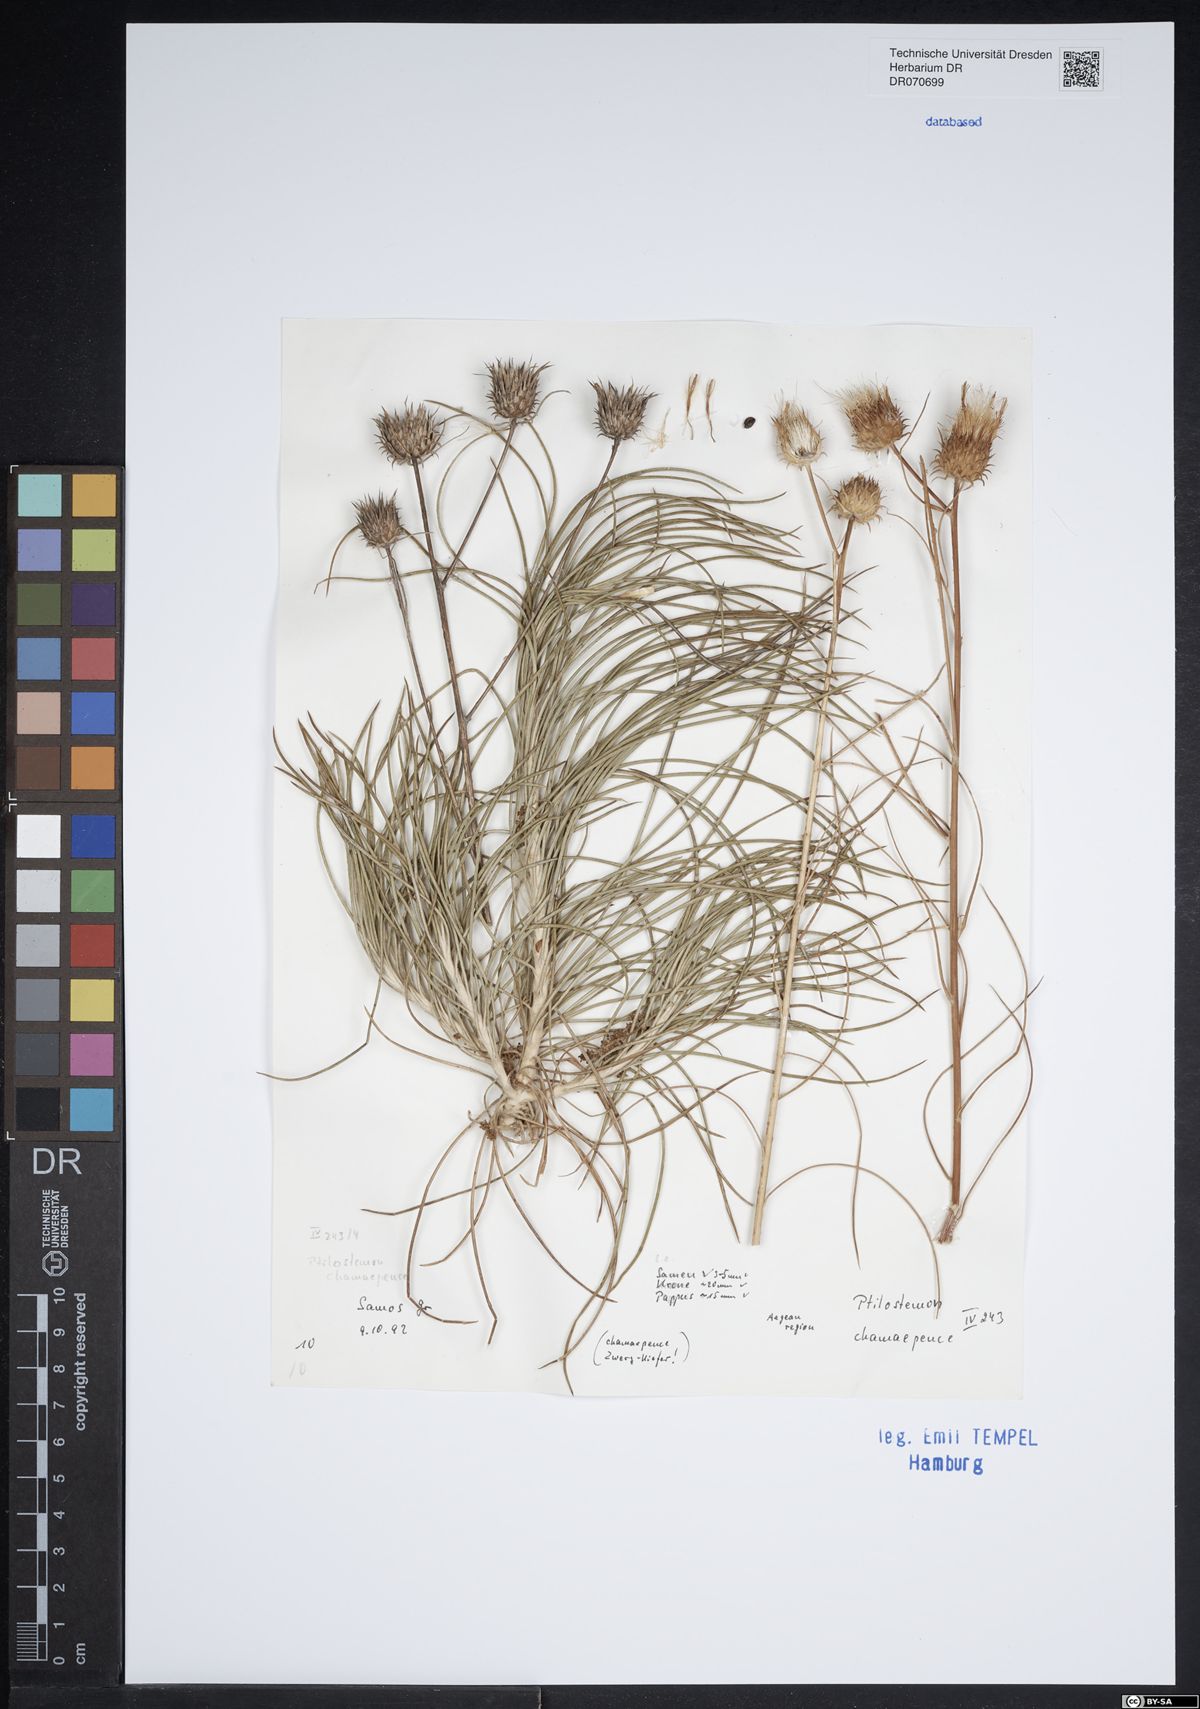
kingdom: Plantae
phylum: Tracheophyta
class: Magnoliopsida
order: Asterales
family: Asteraceae
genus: Ptilostemon
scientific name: Ptilostemon chamaepeuce
